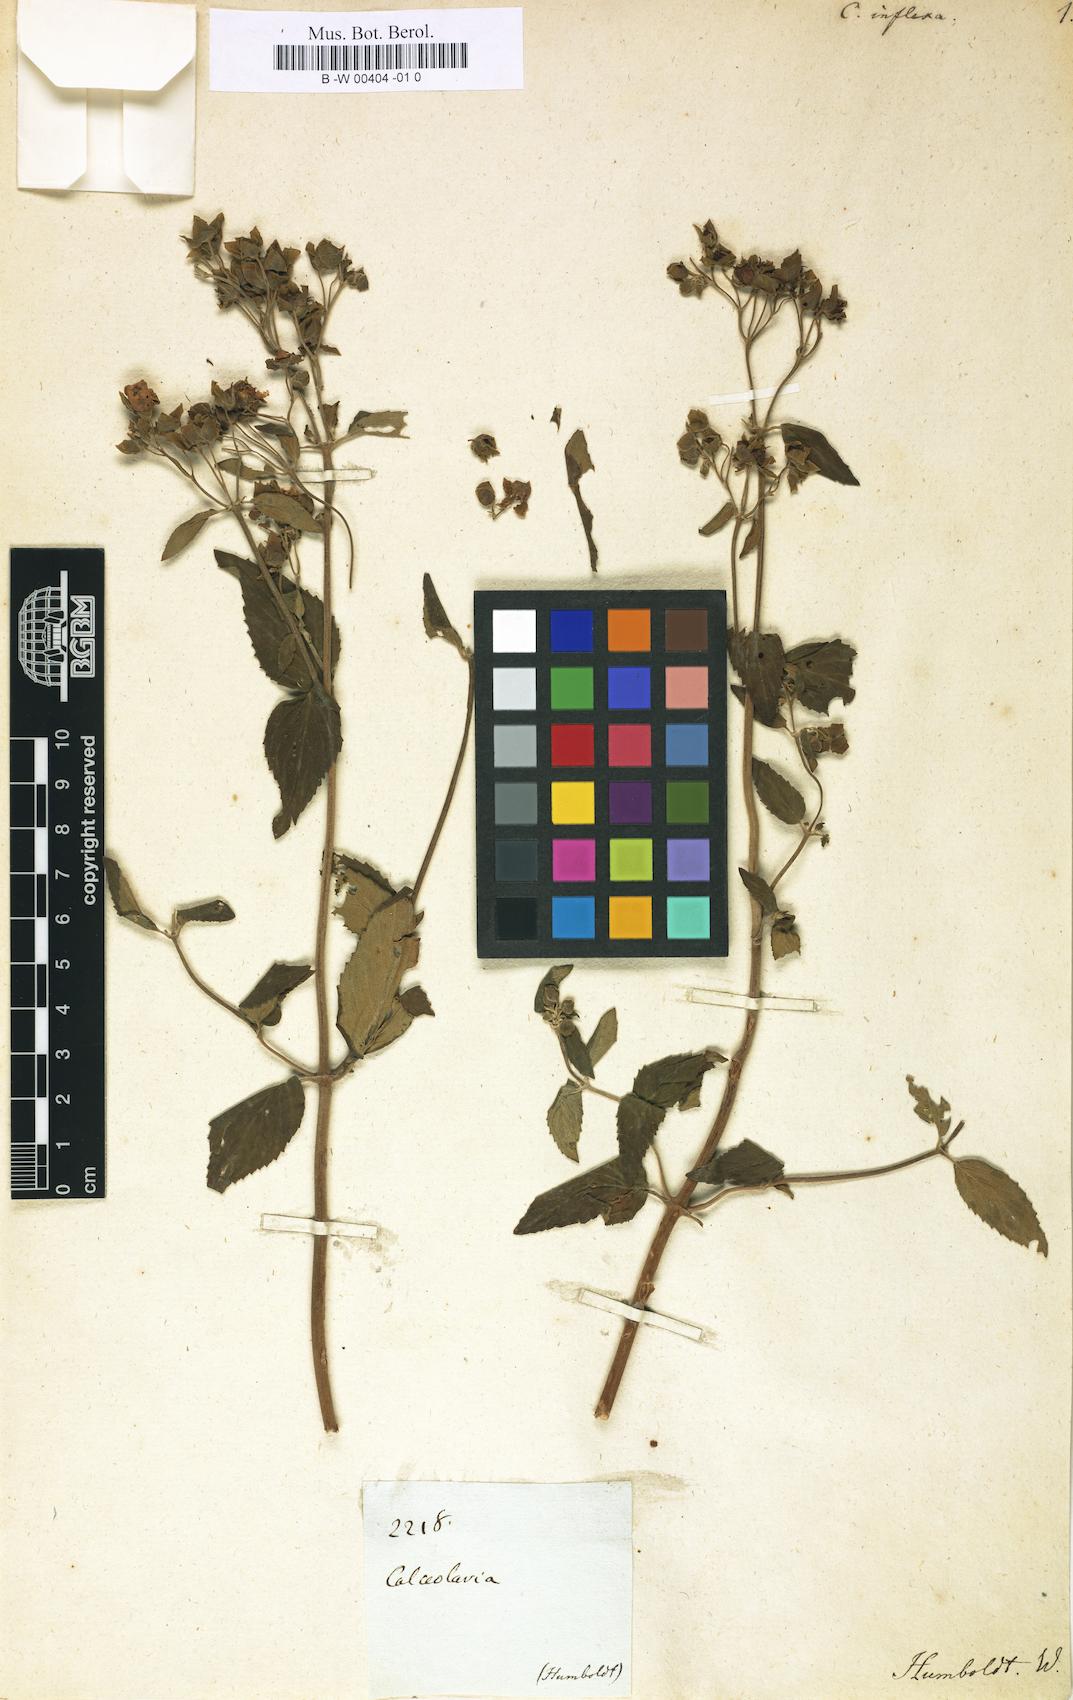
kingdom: Plantae
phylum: Tracheophyta
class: Magnoliopsida
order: Lamiales
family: Calceolariaceae
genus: Calceolaria
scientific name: Calceolaria inflexa
